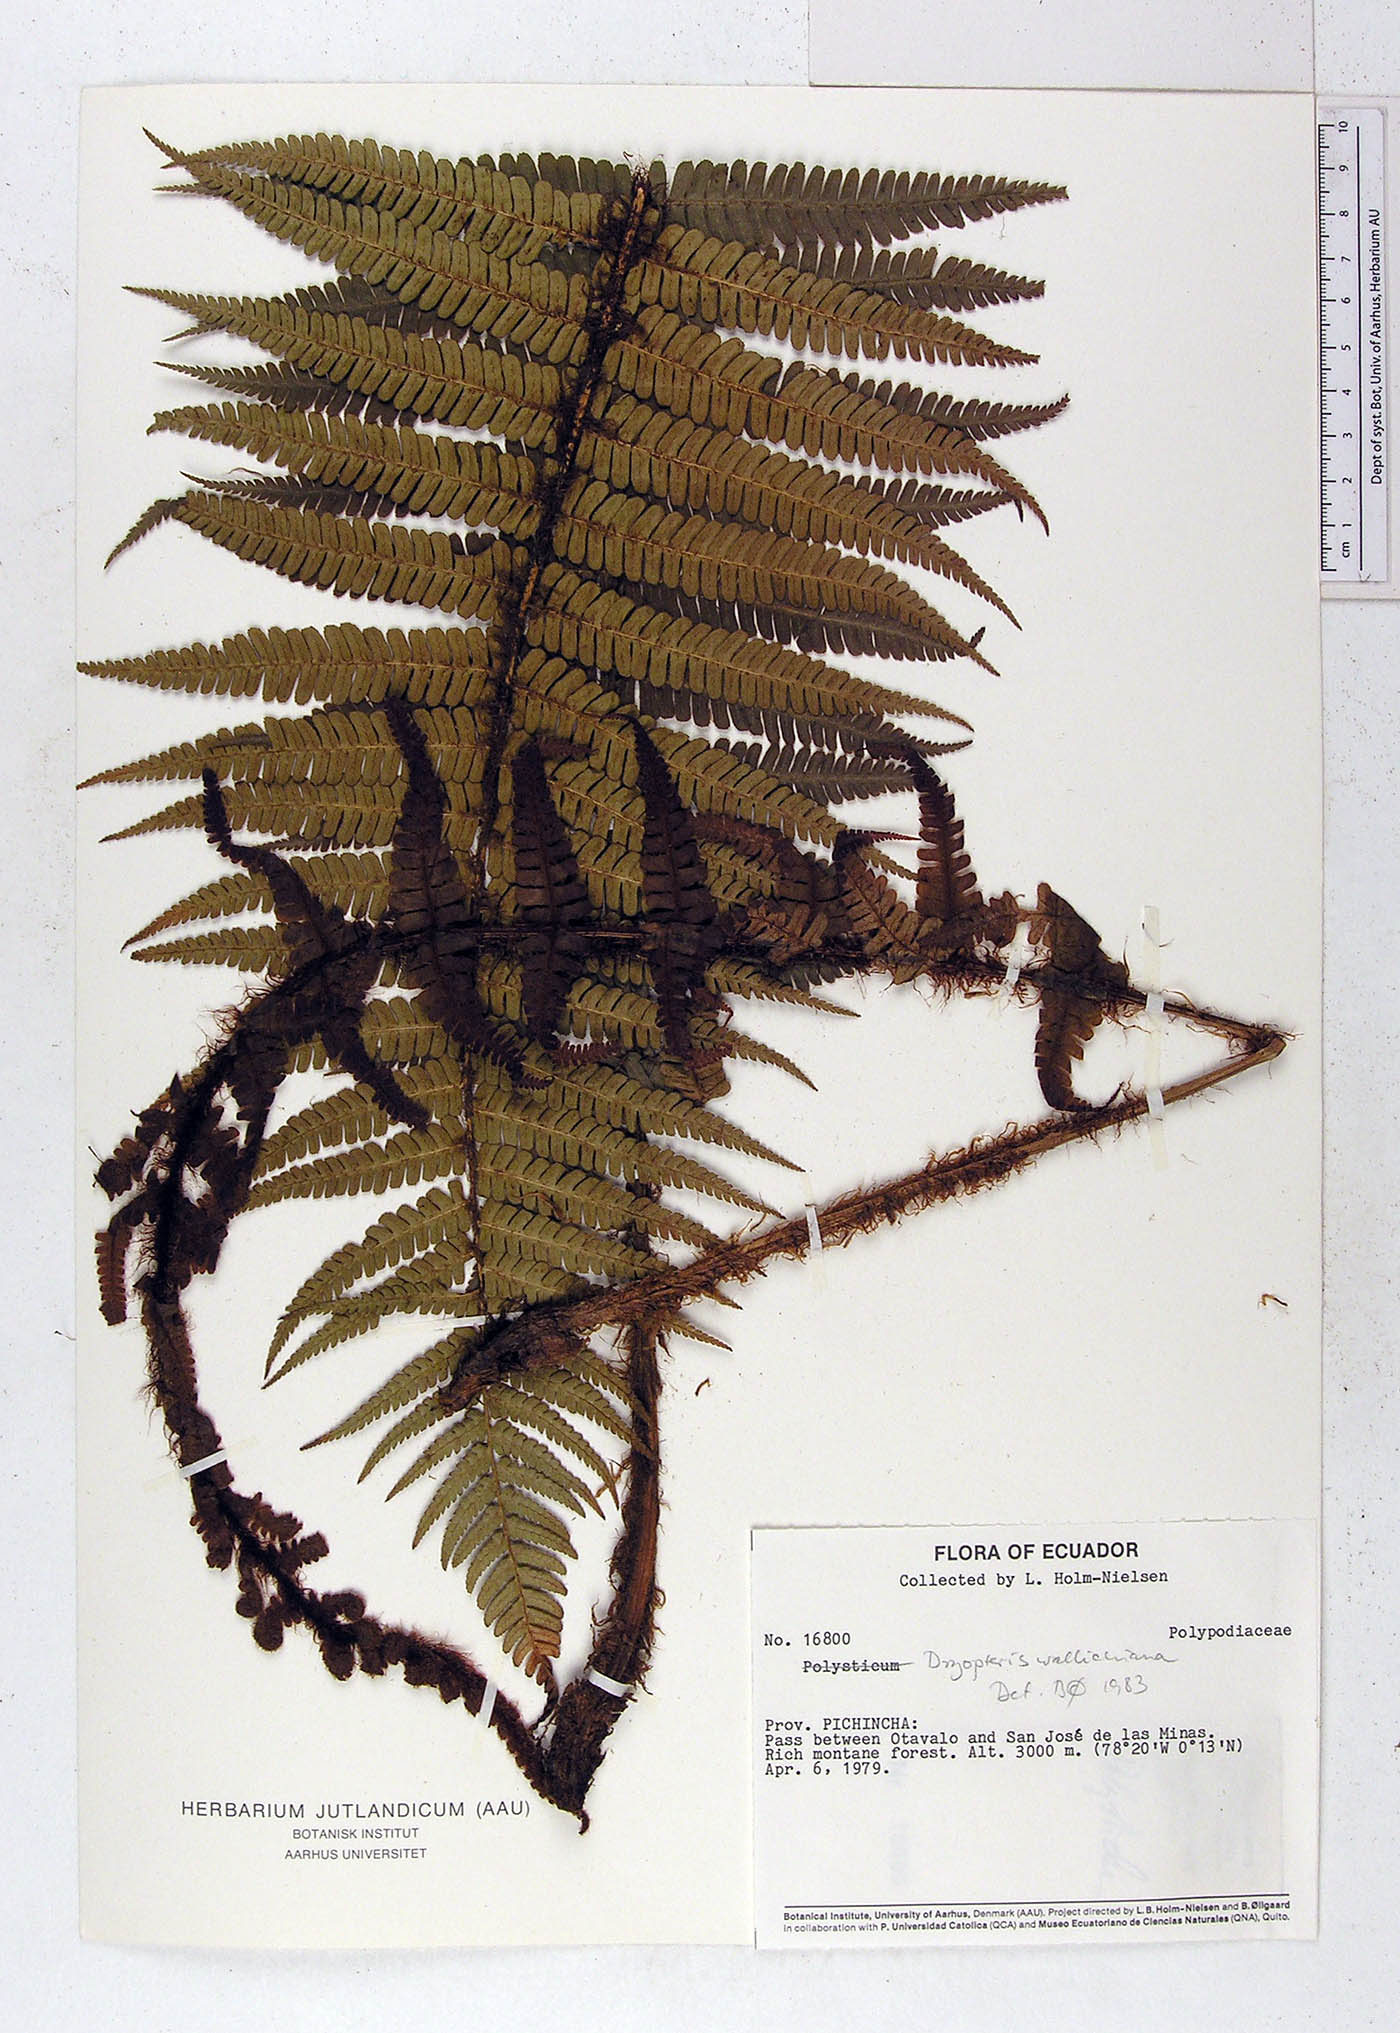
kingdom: Plantae
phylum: Tracheophyta
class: Polypodiopsida
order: Polypodiales
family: Dryopteridaceae
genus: Dryopteris
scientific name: Dryopteris wallichiana
